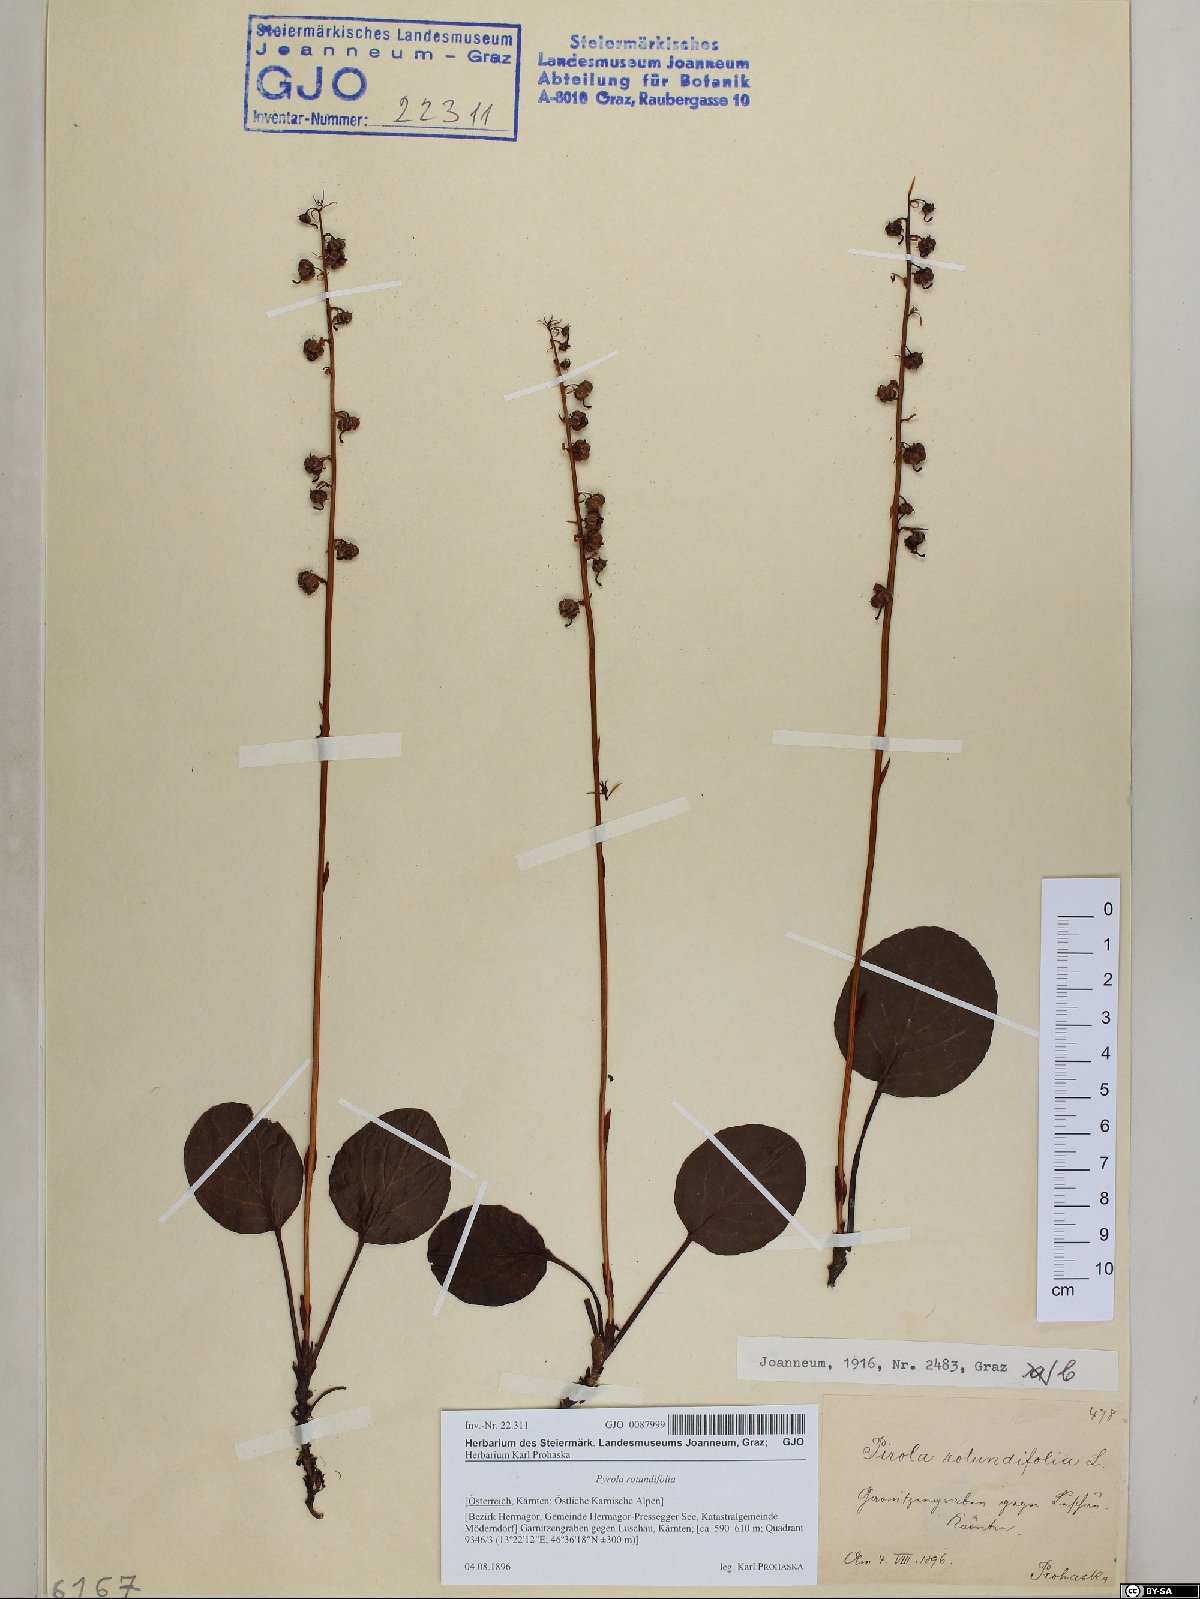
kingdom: Plantae
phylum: Tracheophyta
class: Magnoliopsida
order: Ericales
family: Ericaceae
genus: Pyrola
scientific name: Pyrola rotundifolia
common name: Round-leaved wintergreen
